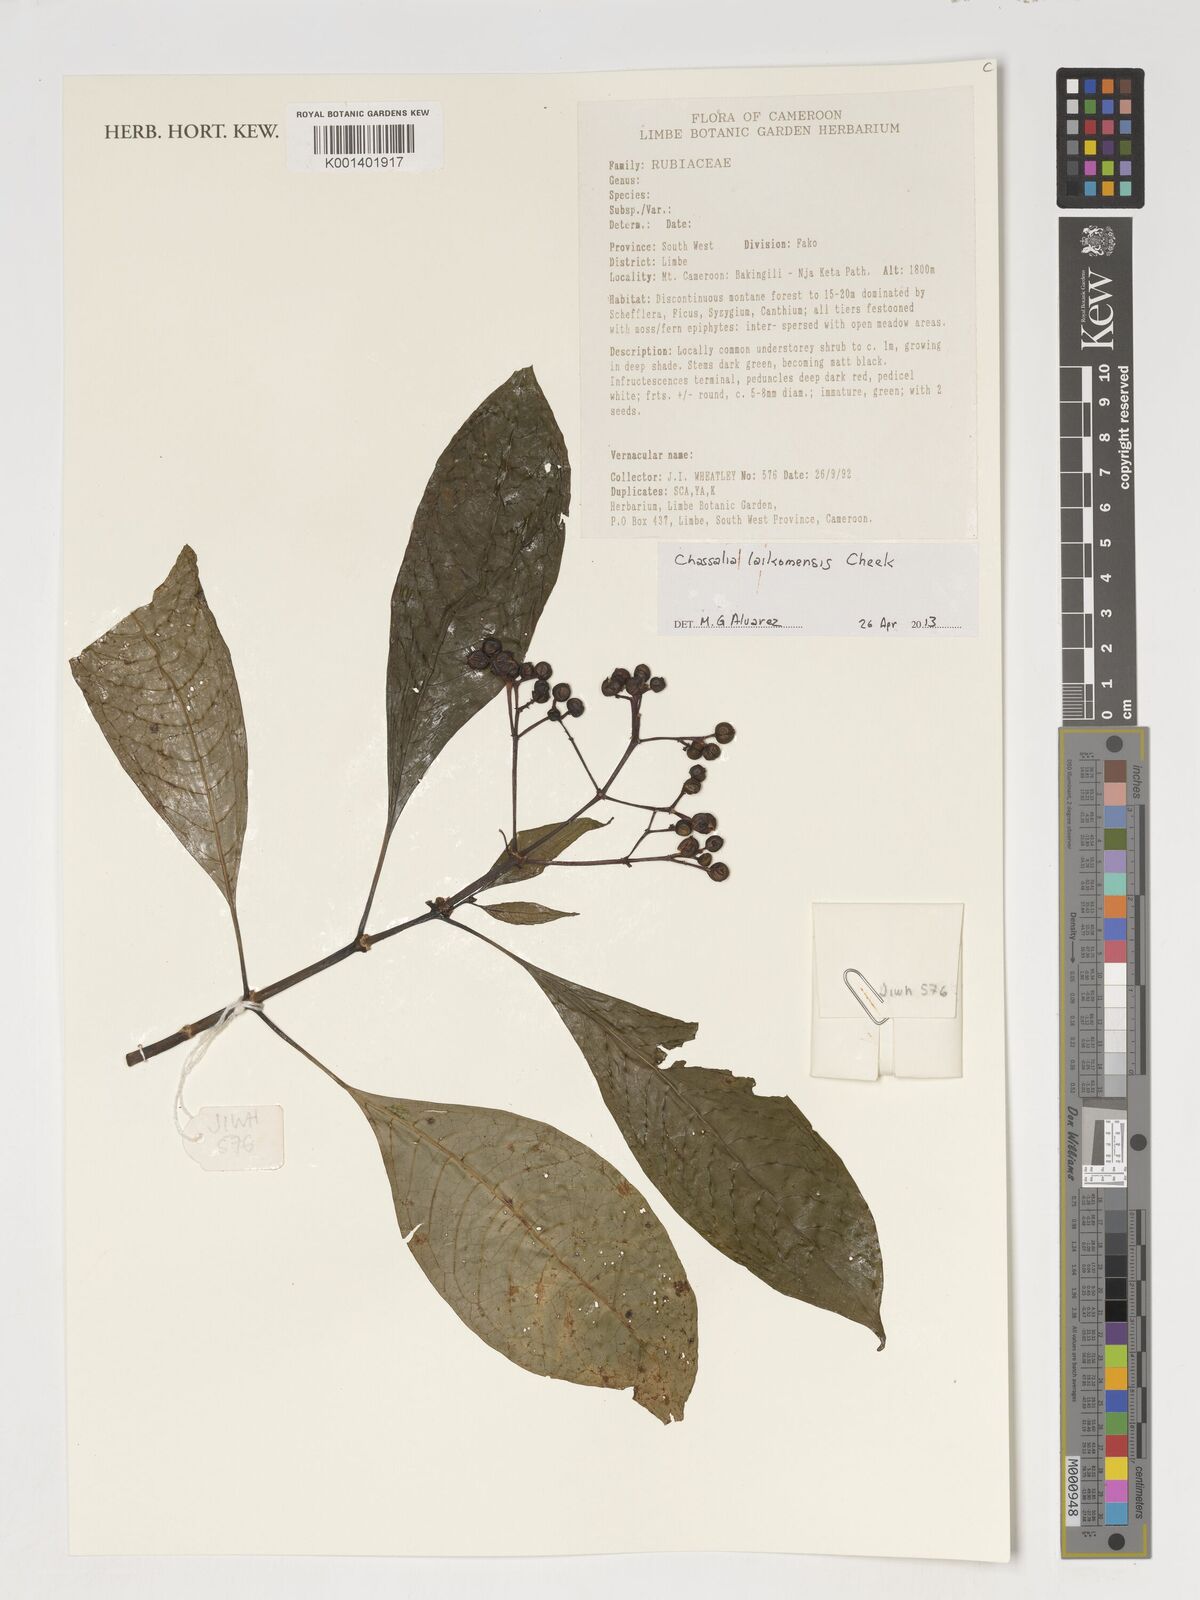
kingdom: Plantae
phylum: Tracheophyta
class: Magnoliopsida
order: Gentianales
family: Rubiaceae
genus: Chassalia
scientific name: Chassalia laikomensis
